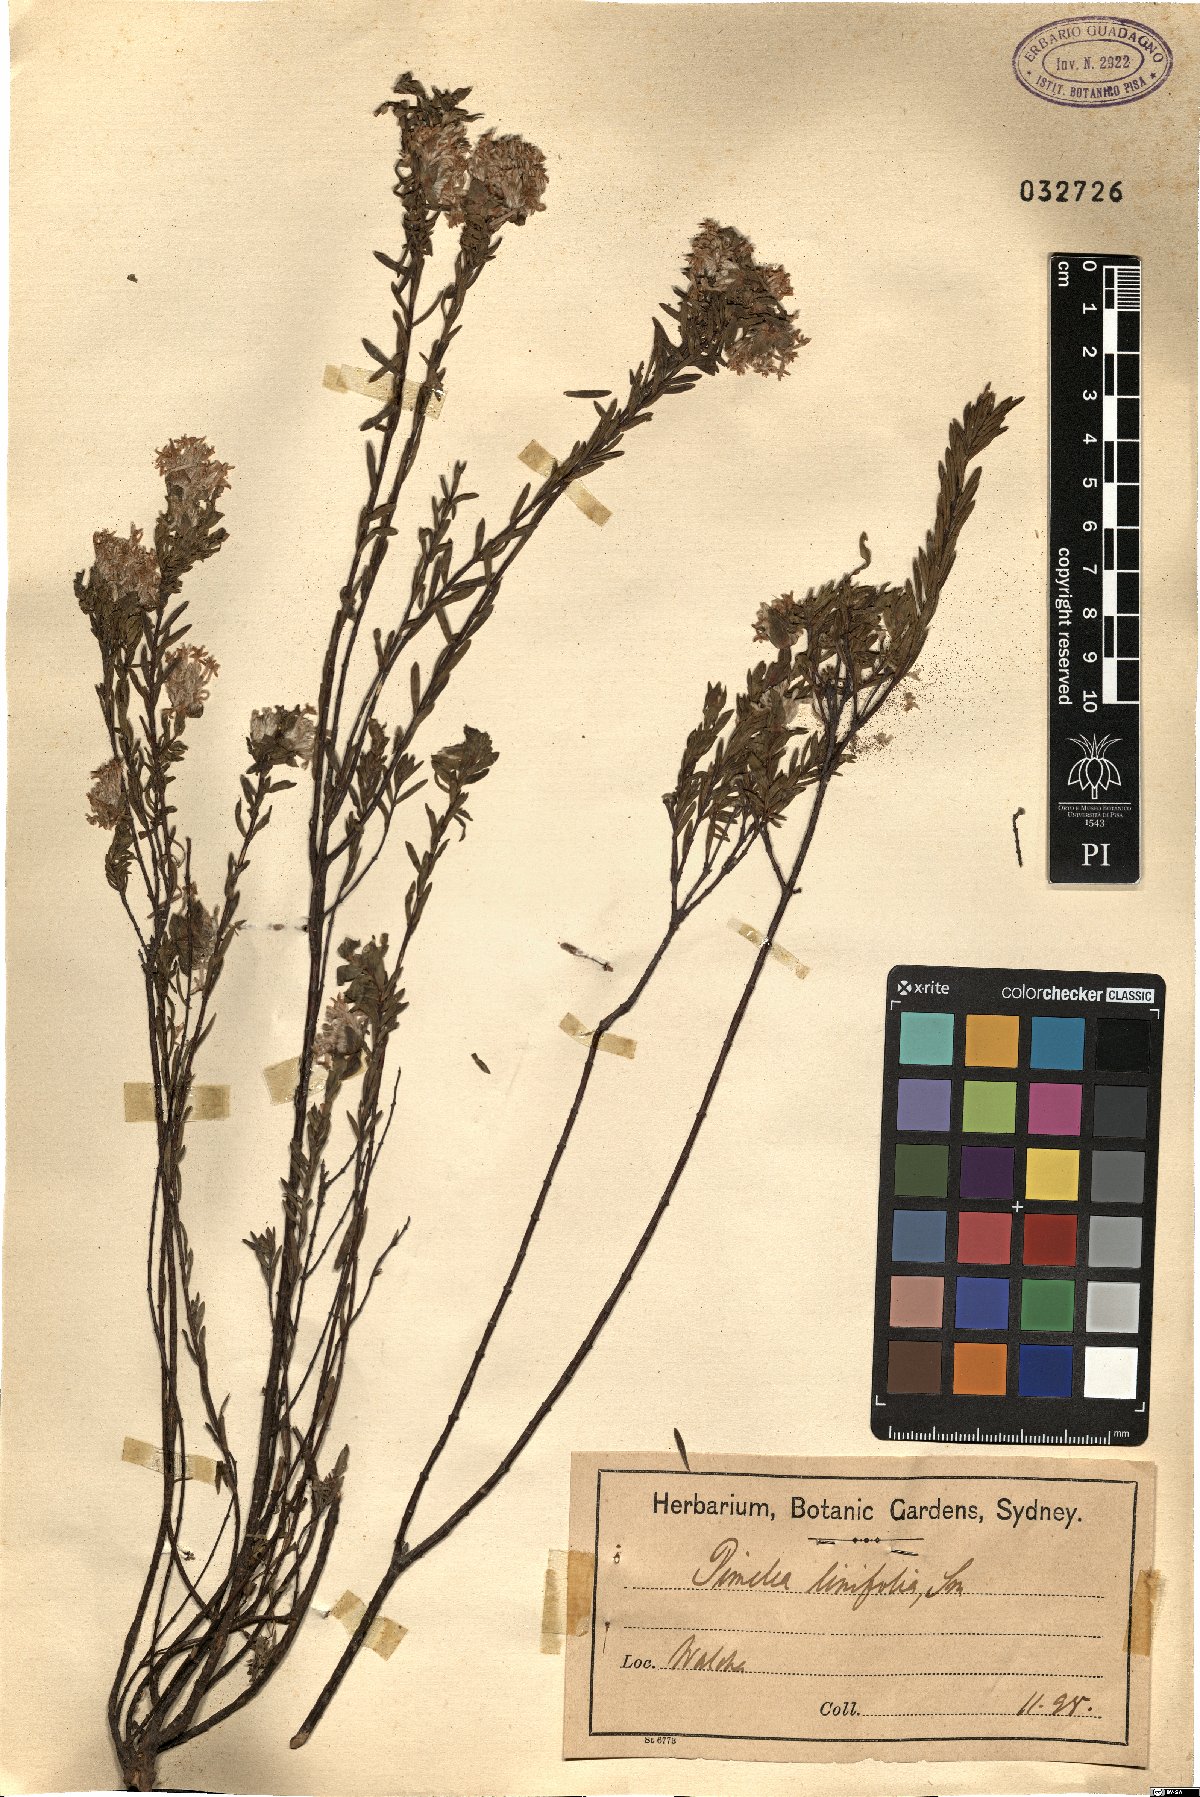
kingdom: Plantae
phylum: Tracheophyta
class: Magnoliopsida
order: Malvales
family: Thymelaeaceae
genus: Pimelea
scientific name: Pimelea linifolia
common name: Queen-of-the-bush
